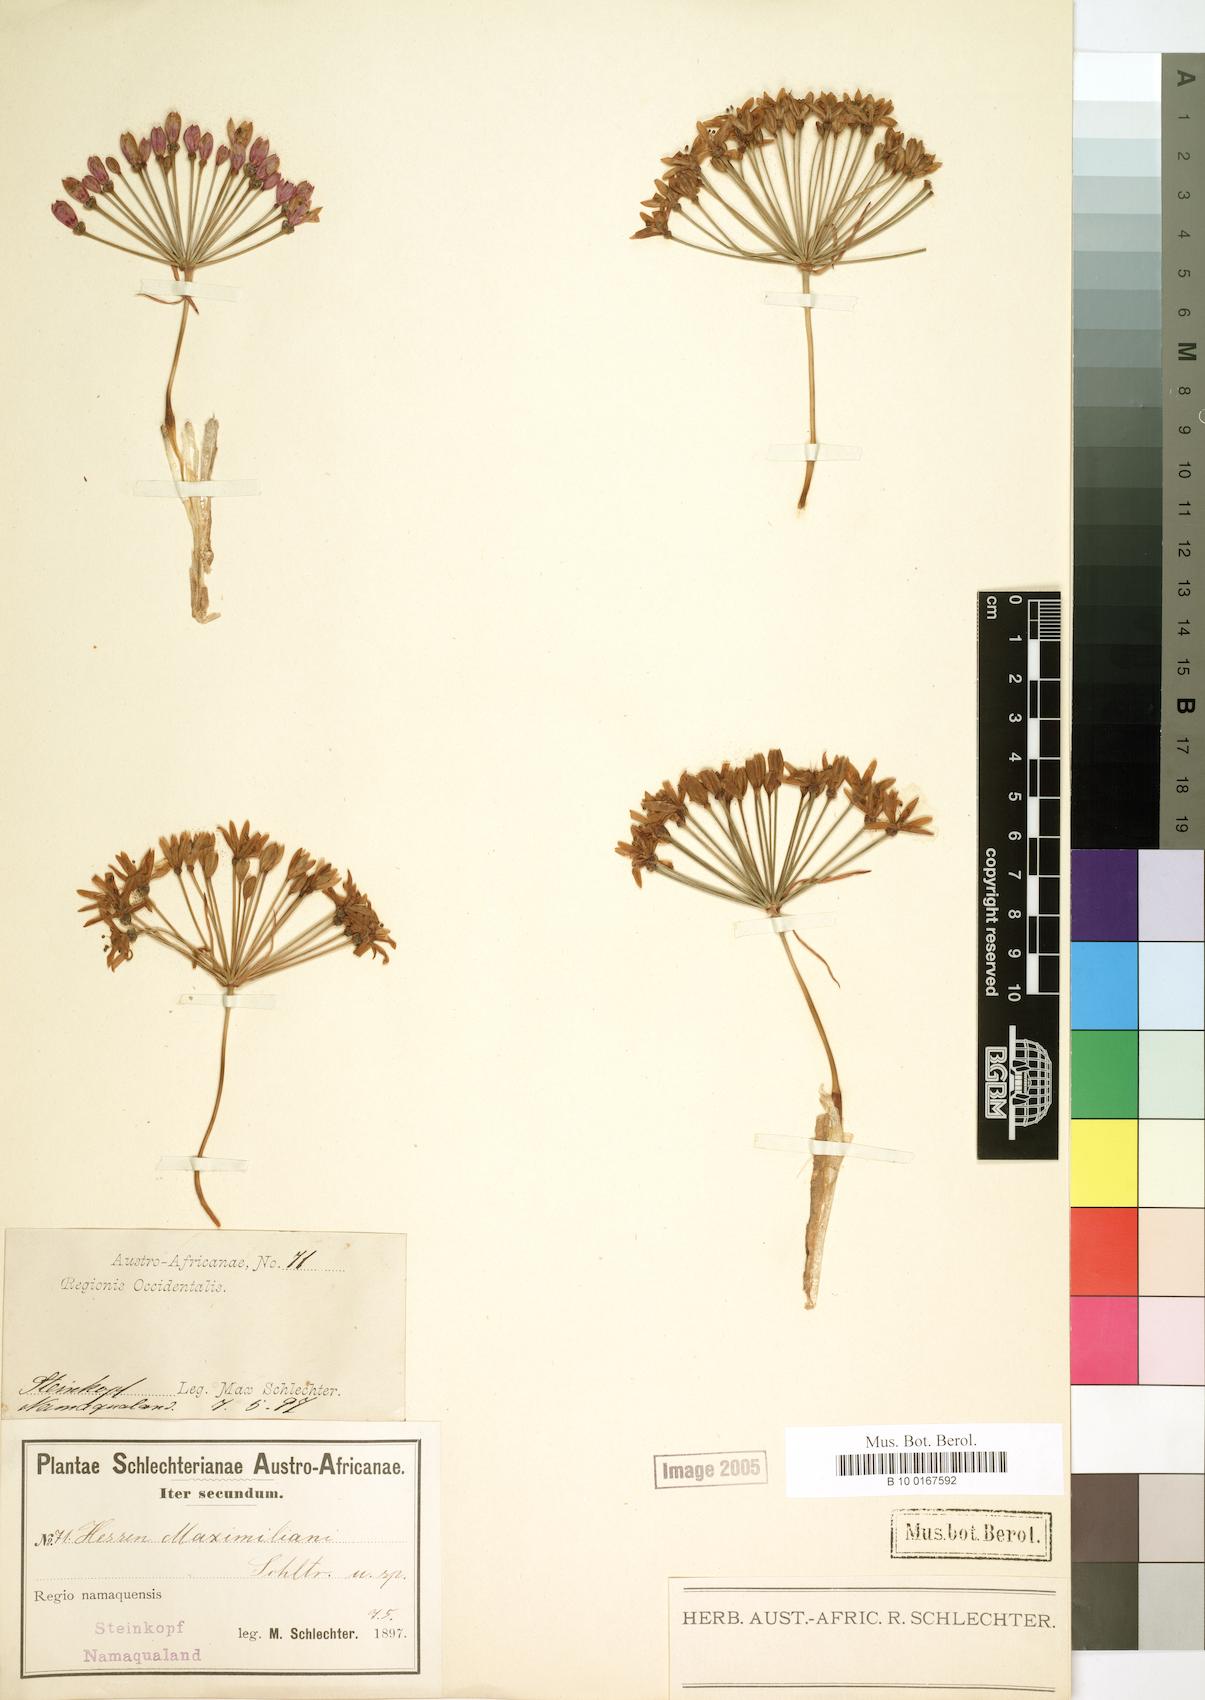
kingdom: Plantae
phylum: Tracheophyta
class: Liliopsida
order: Asparagales
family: Amaryllidaceae
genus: Hessea
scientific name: Hessea
